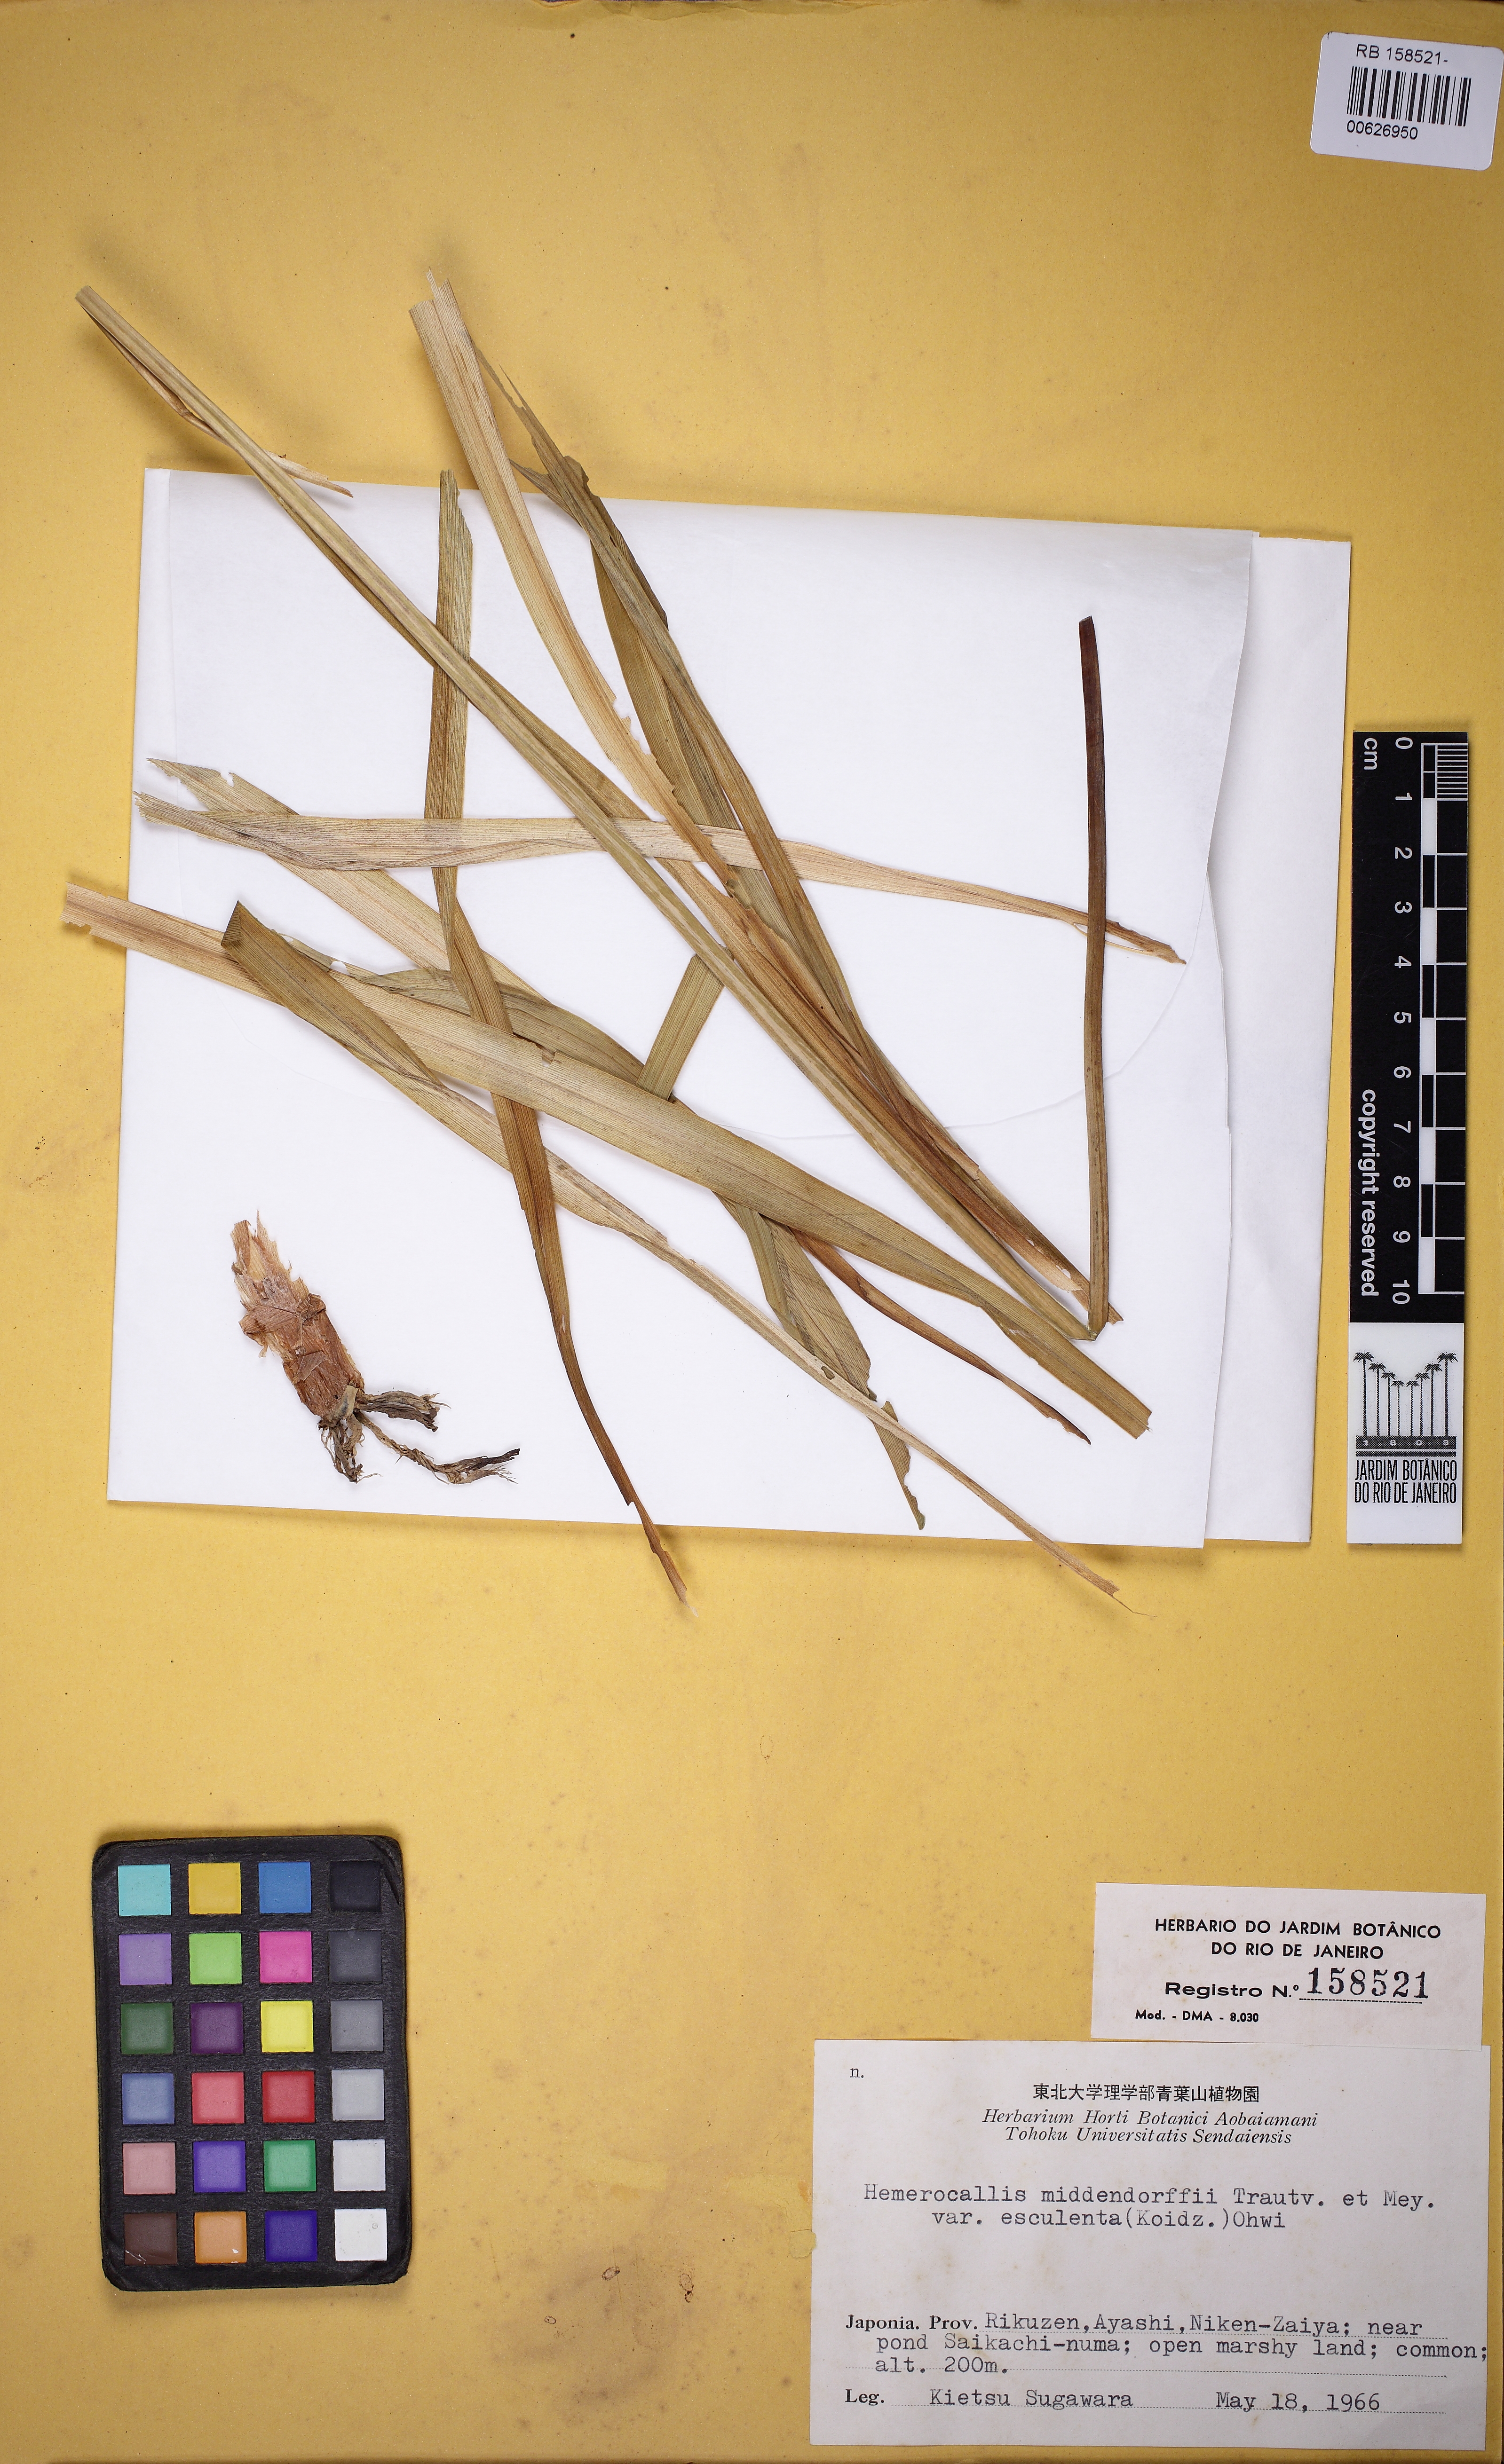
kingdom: Plantae
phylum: Tracheophyta
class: Liliopsida
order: Asparagales
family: Asphodelaceae
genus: Hemerocallis
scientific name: Hemerocallis middendorffii
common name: Amur day-lily
